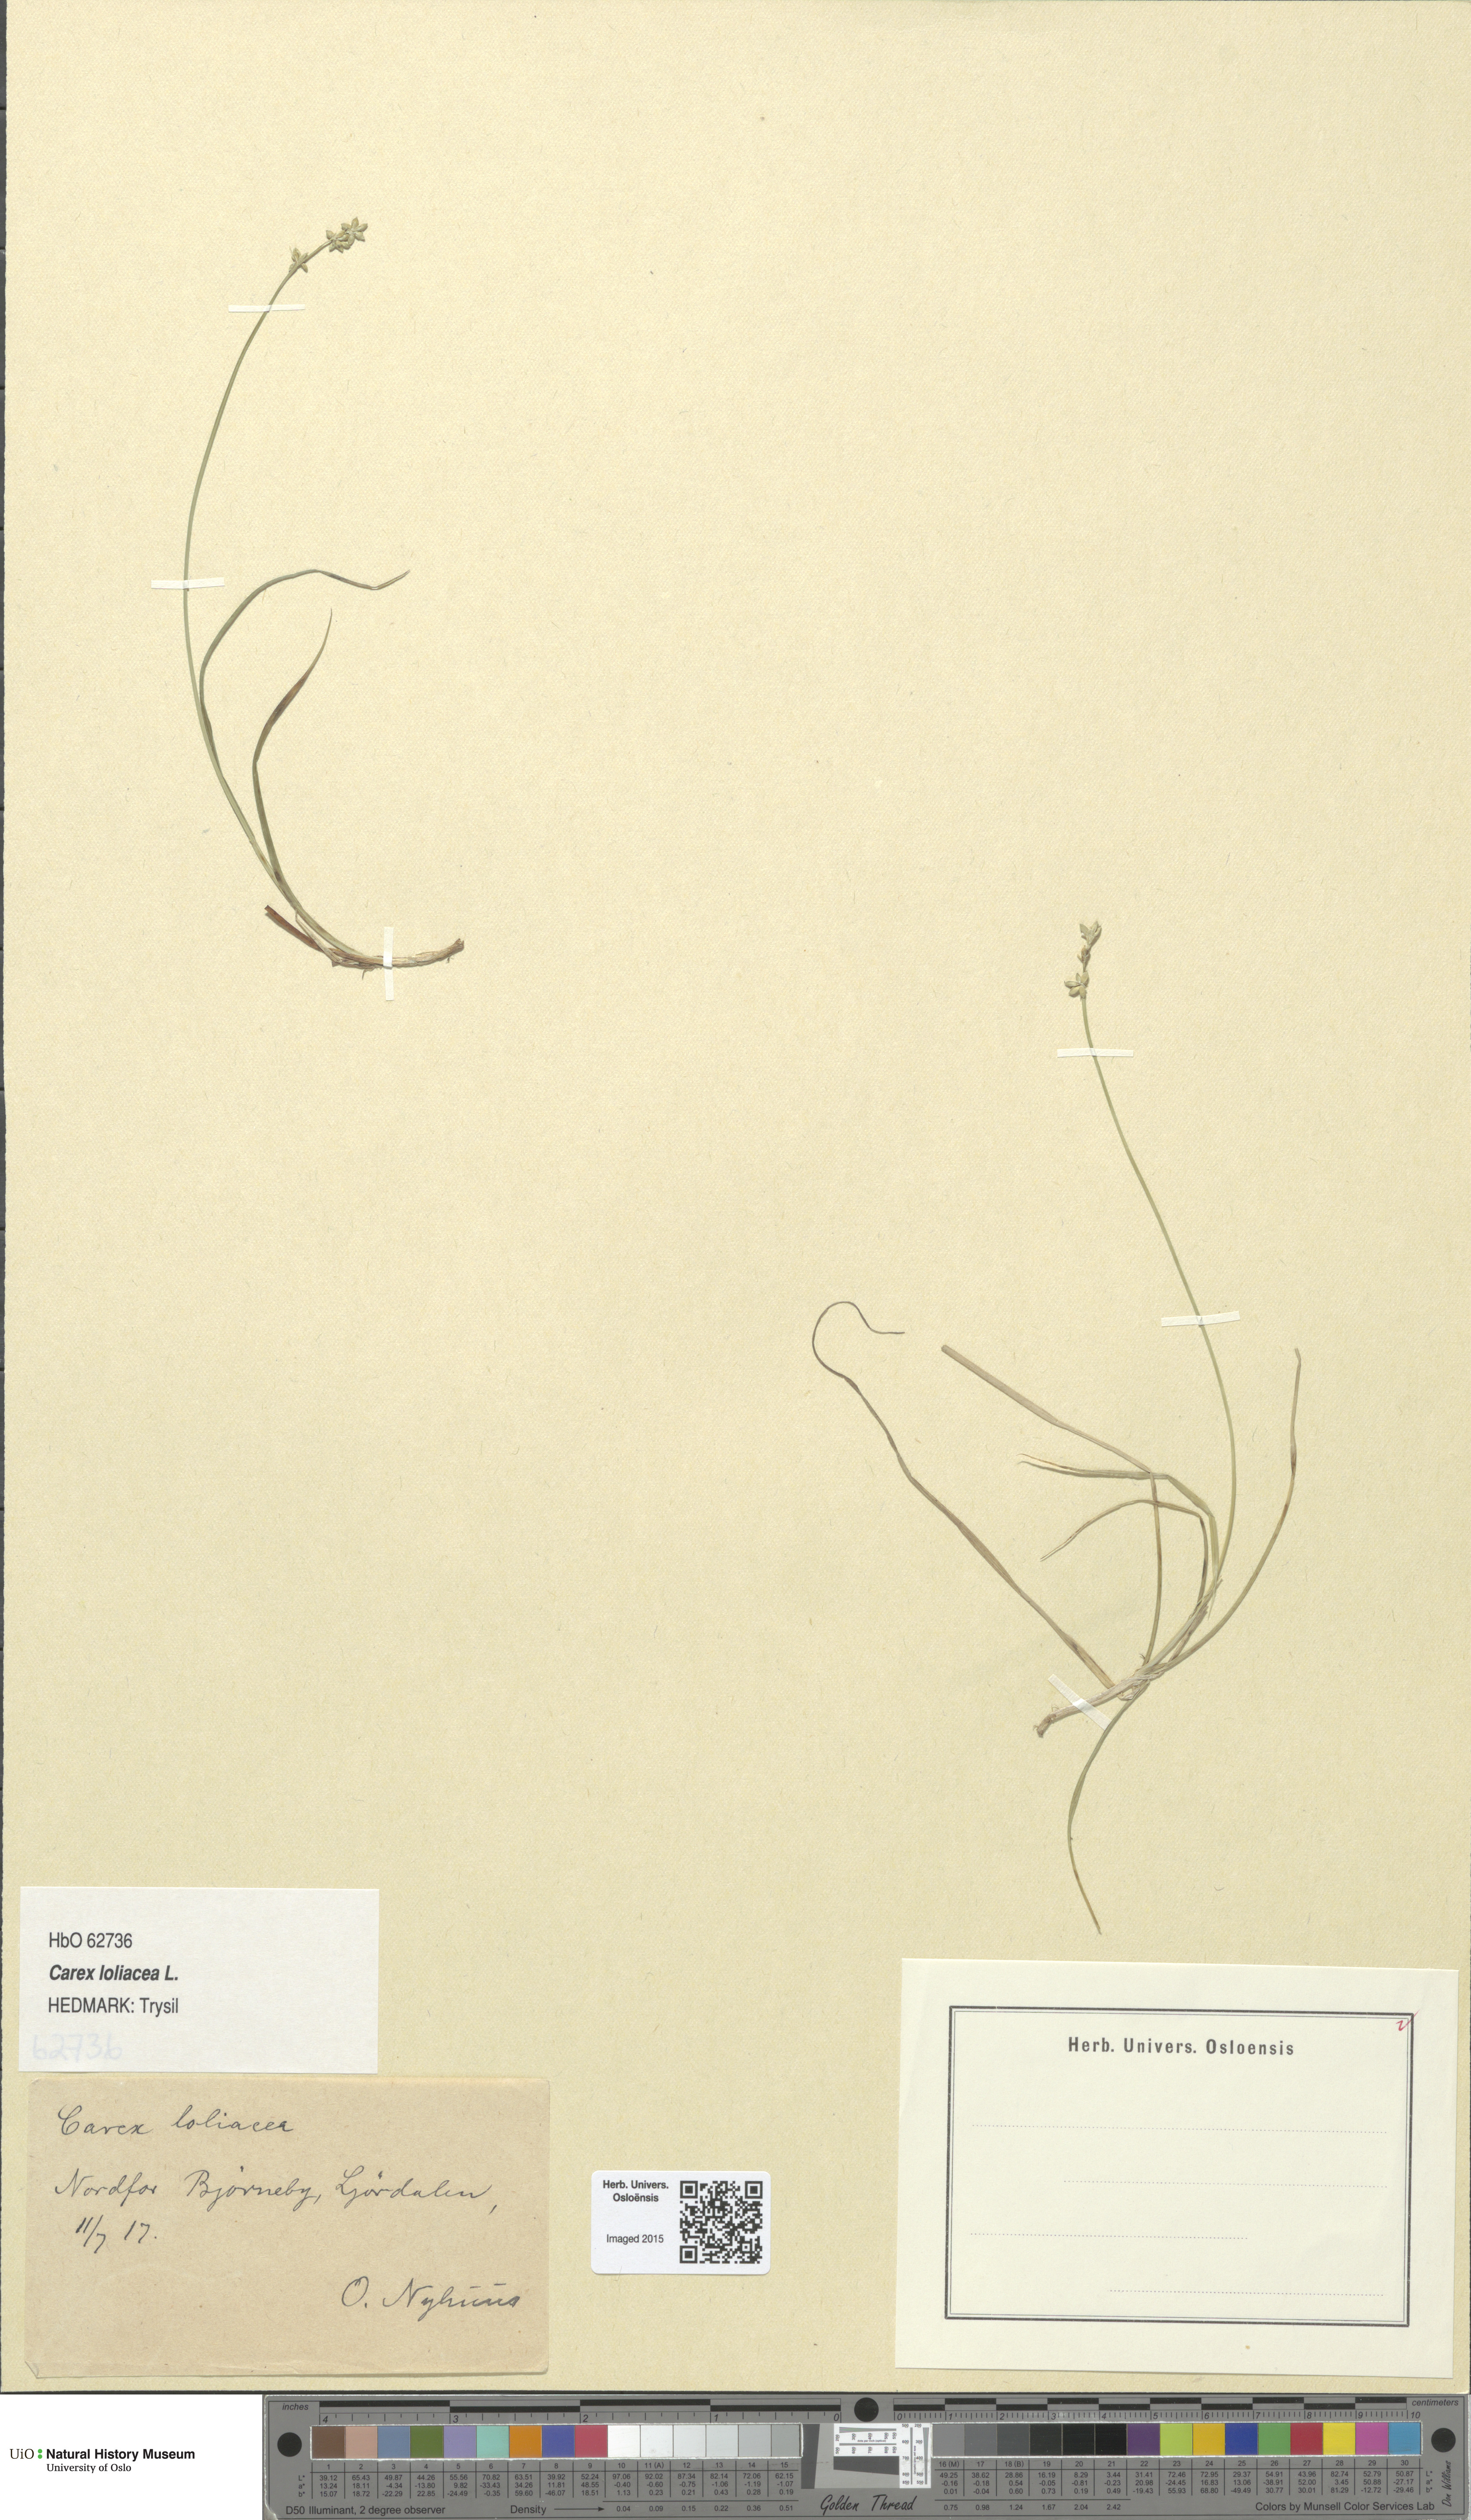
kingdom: Plantae
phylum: Tracheophyta
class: Liliopsida
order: Poales
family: Cyperaceae
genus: Carex
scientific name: Carex loliacea
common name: Ryegrass sedge
